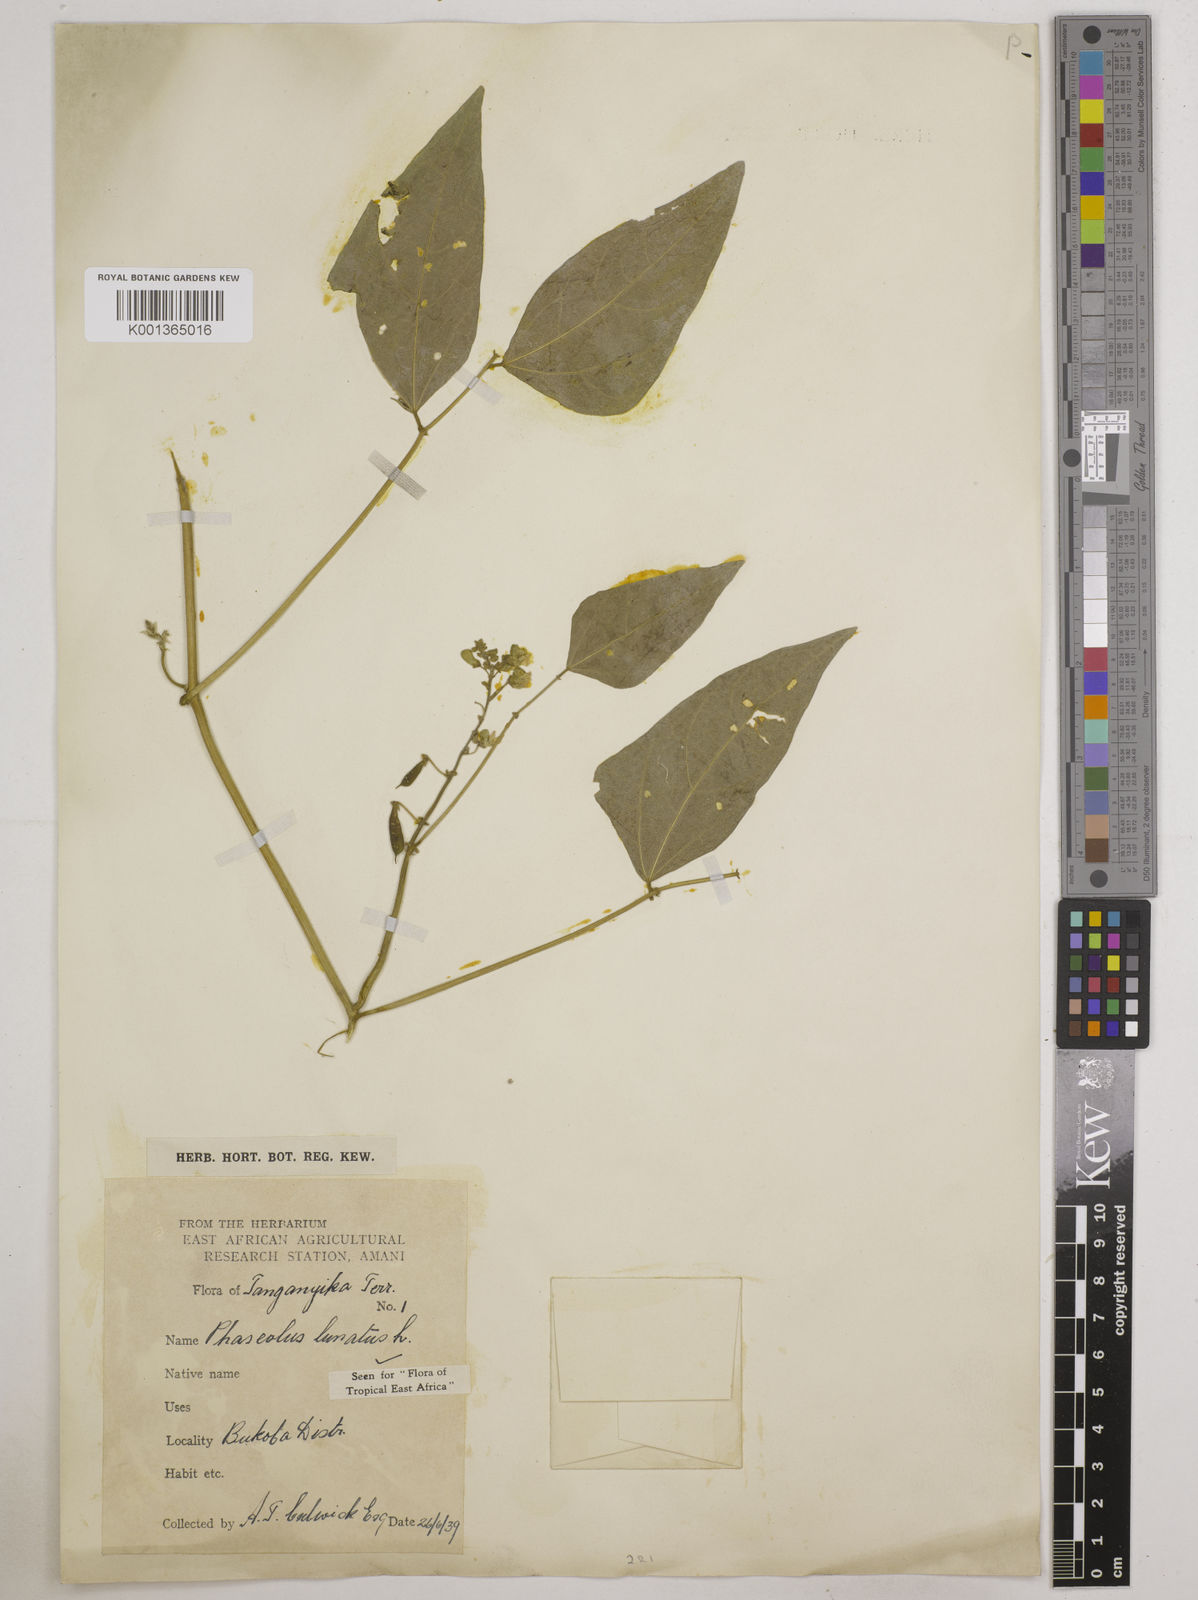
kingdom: Plantae
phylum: Tracheophyta
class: Magnoliopsida
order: Fabales
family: Fabaceae
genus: Phaseolus
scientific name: Phaseolus lunatus
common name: Sieva bean
